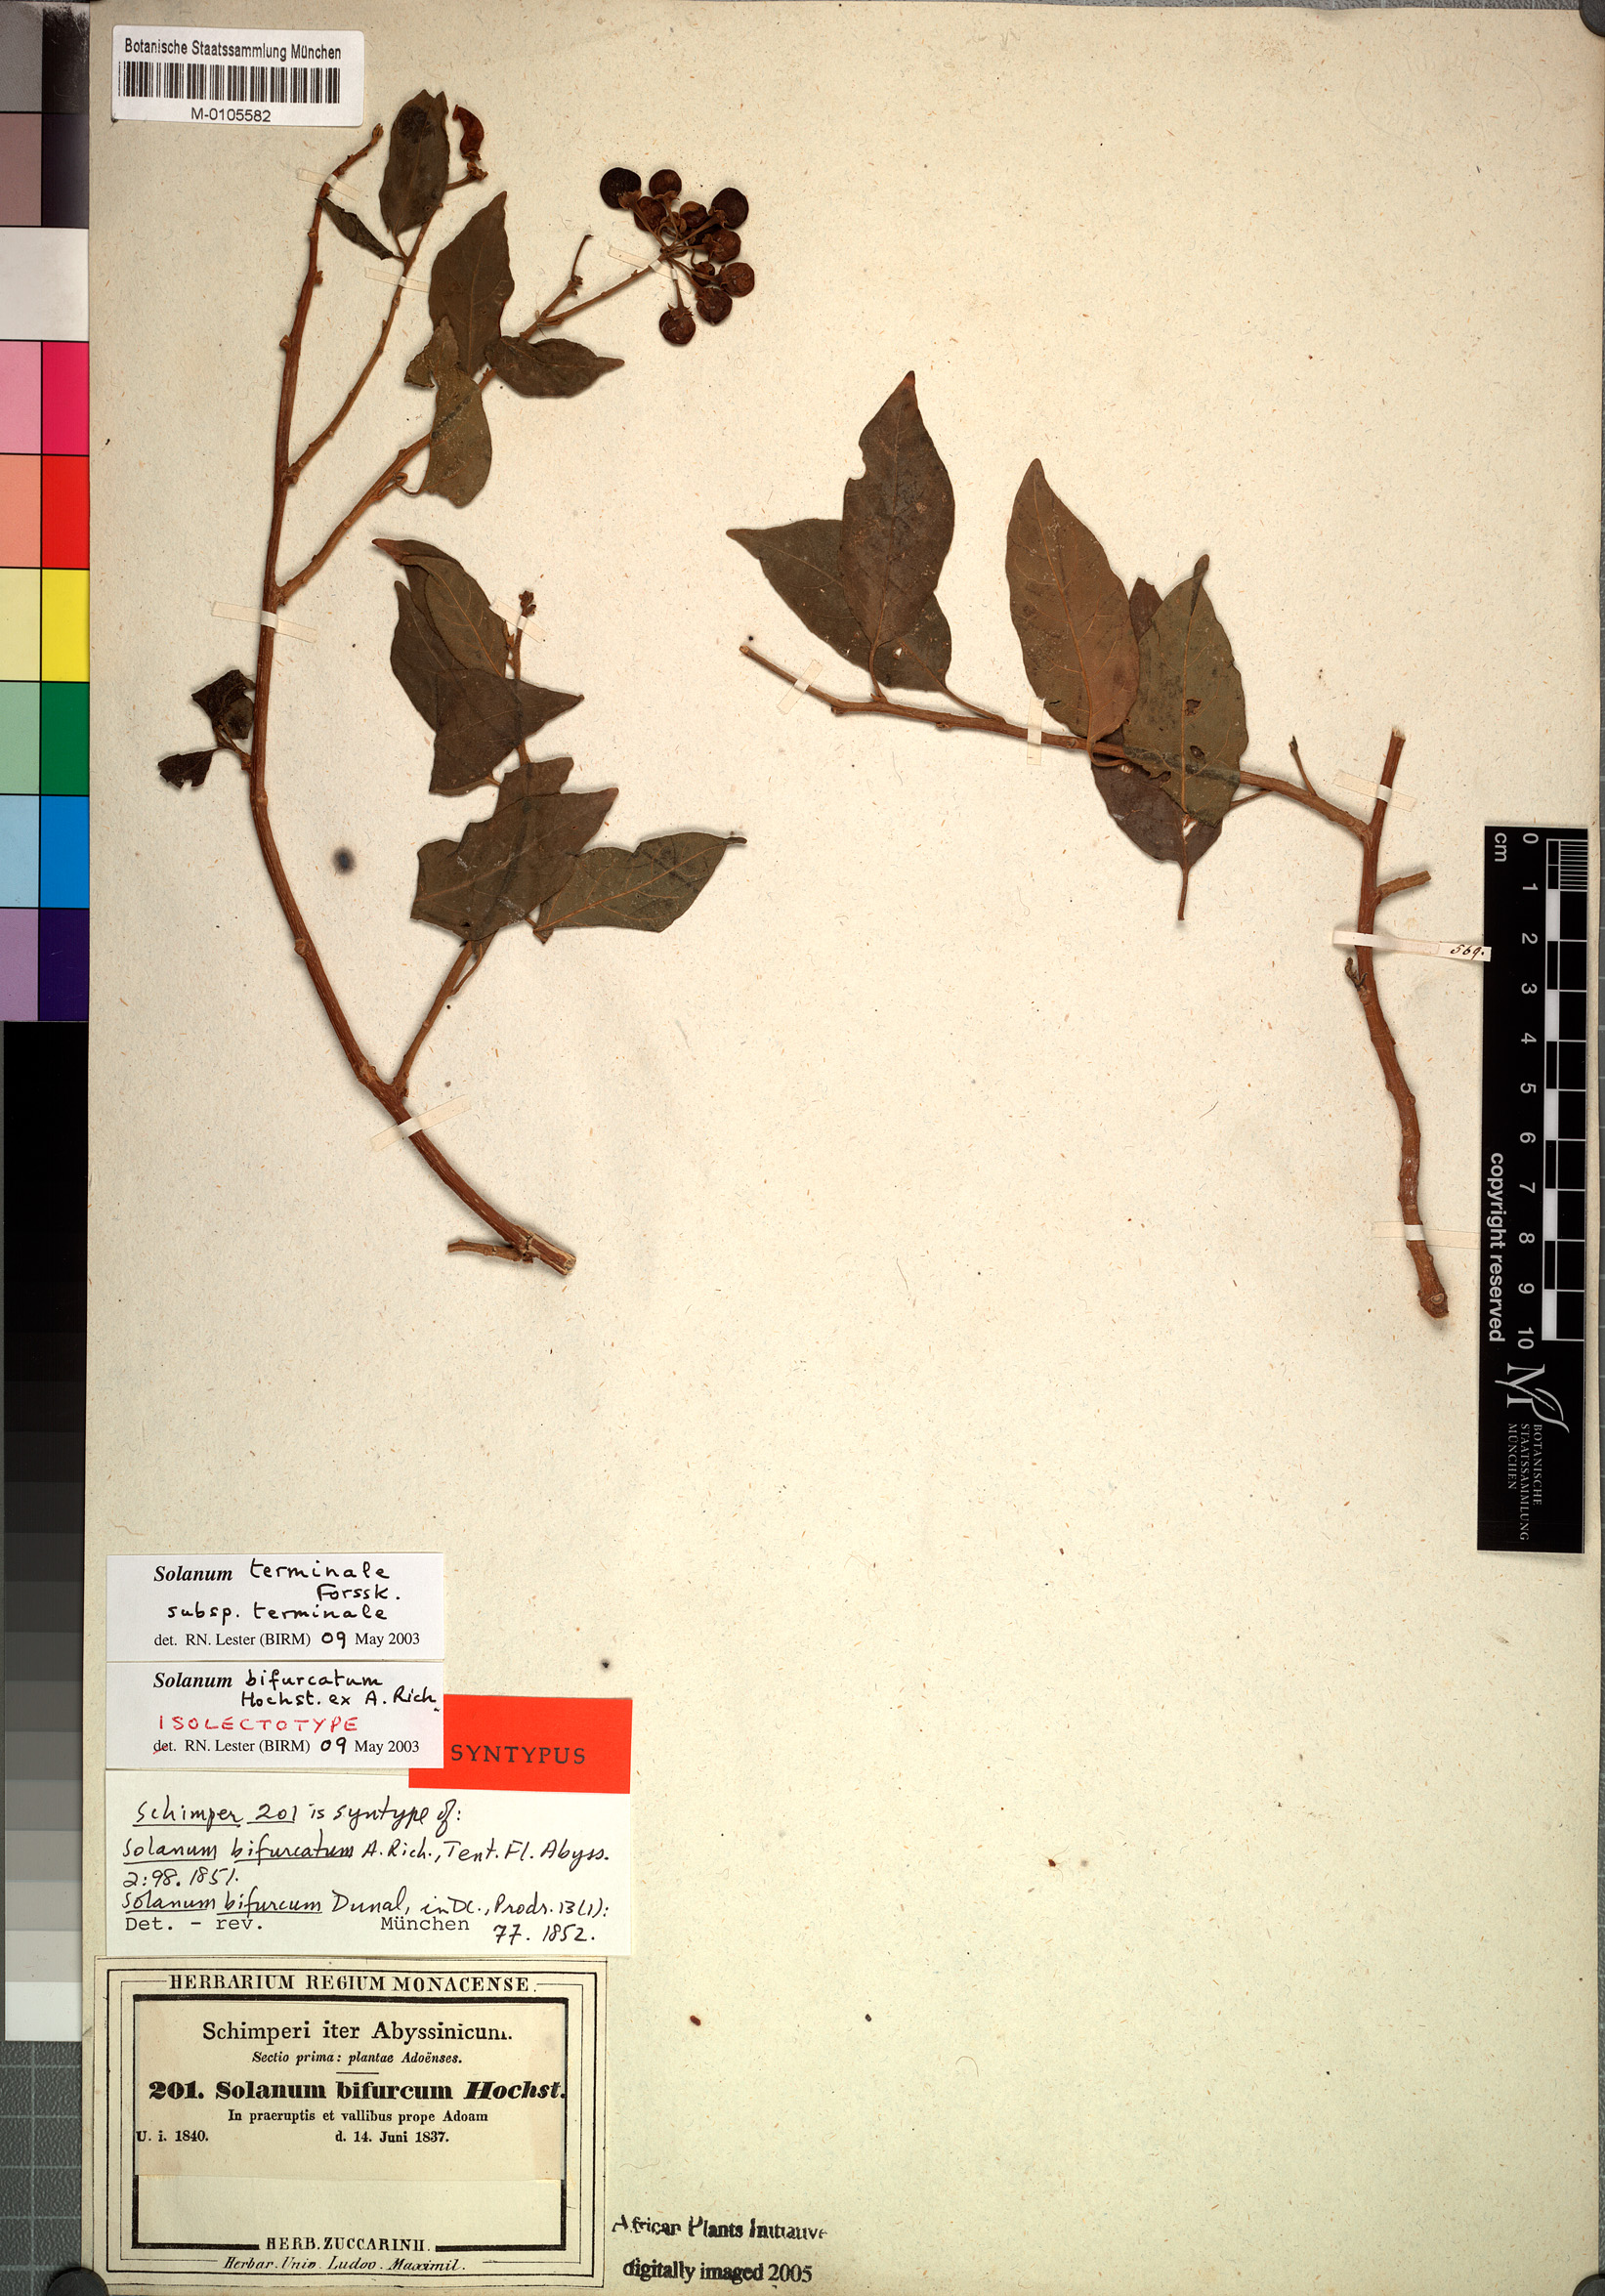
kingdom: Plantae
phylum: Tracheophyta
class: Magnoliopsida
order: Solanales
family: Solanaceae
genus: Solanum
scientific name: Solanum terminale
